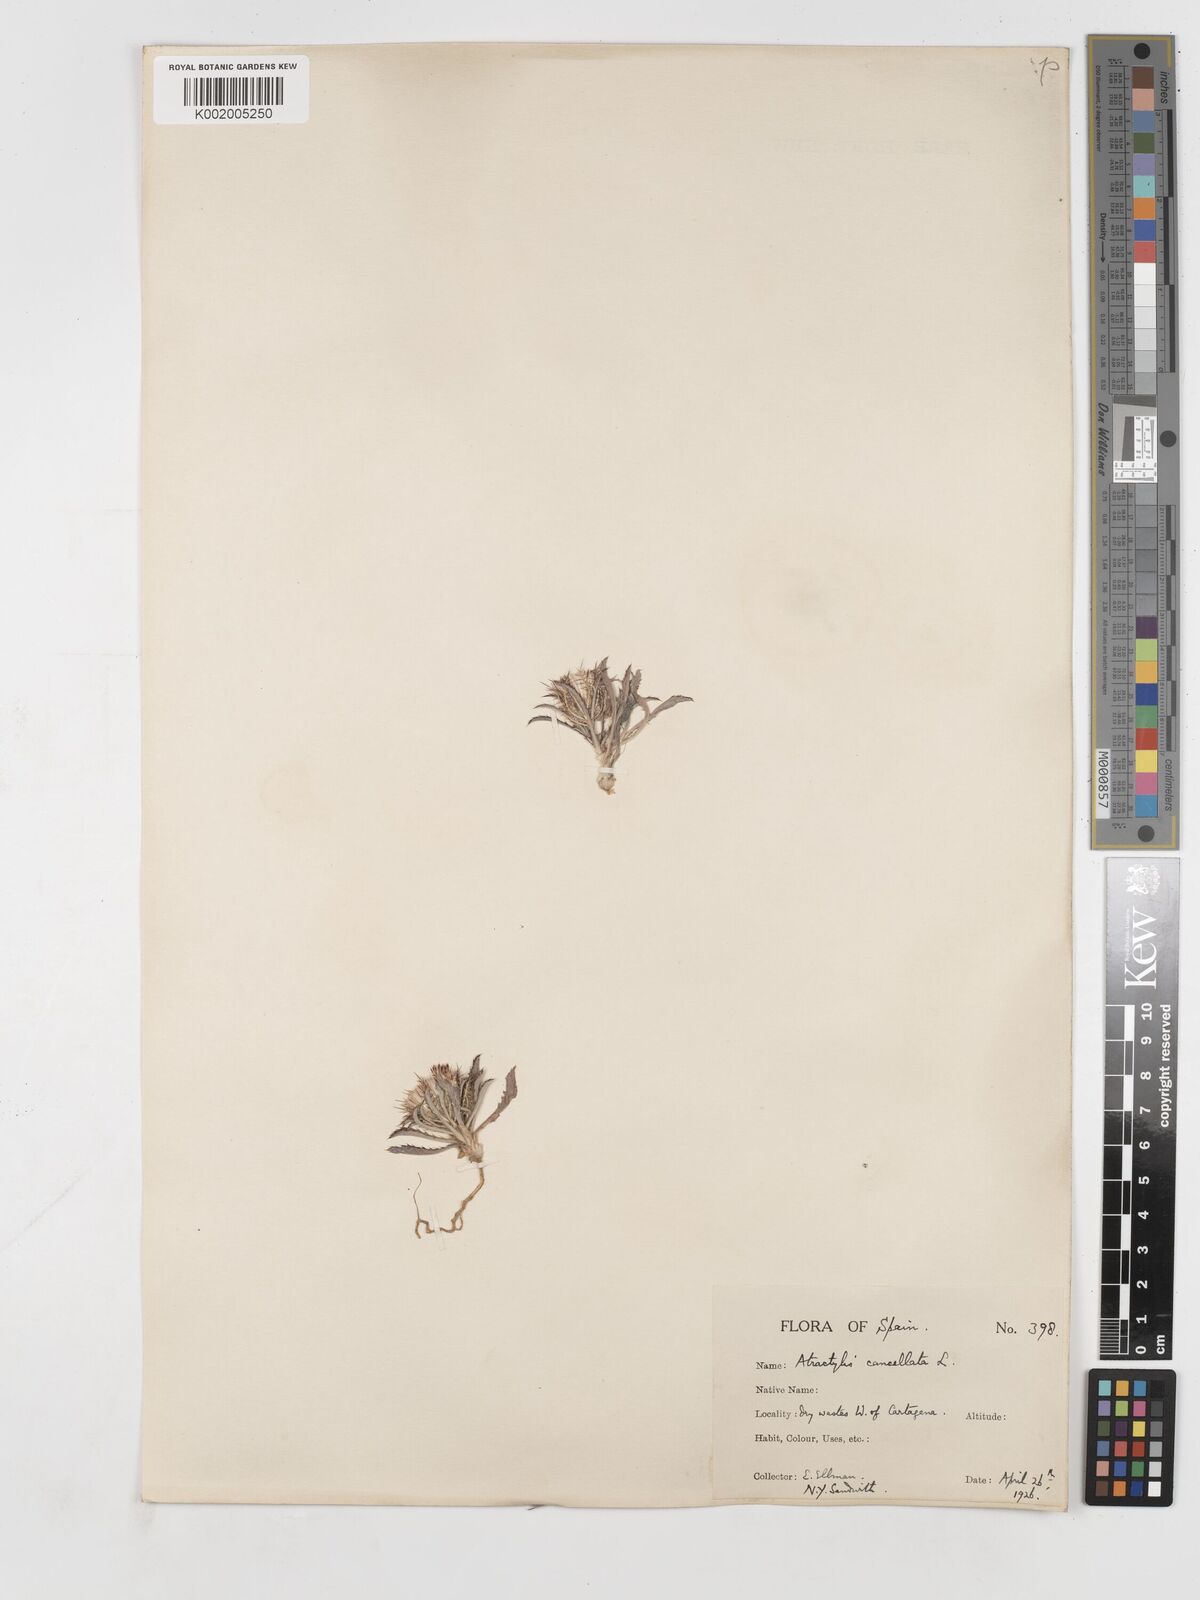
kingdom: Plantae
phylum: Tracheophyta
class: Magnoliopsida
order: Asterales
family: Asteraceae
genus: Atractylis
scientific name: Atractylis cancellata
